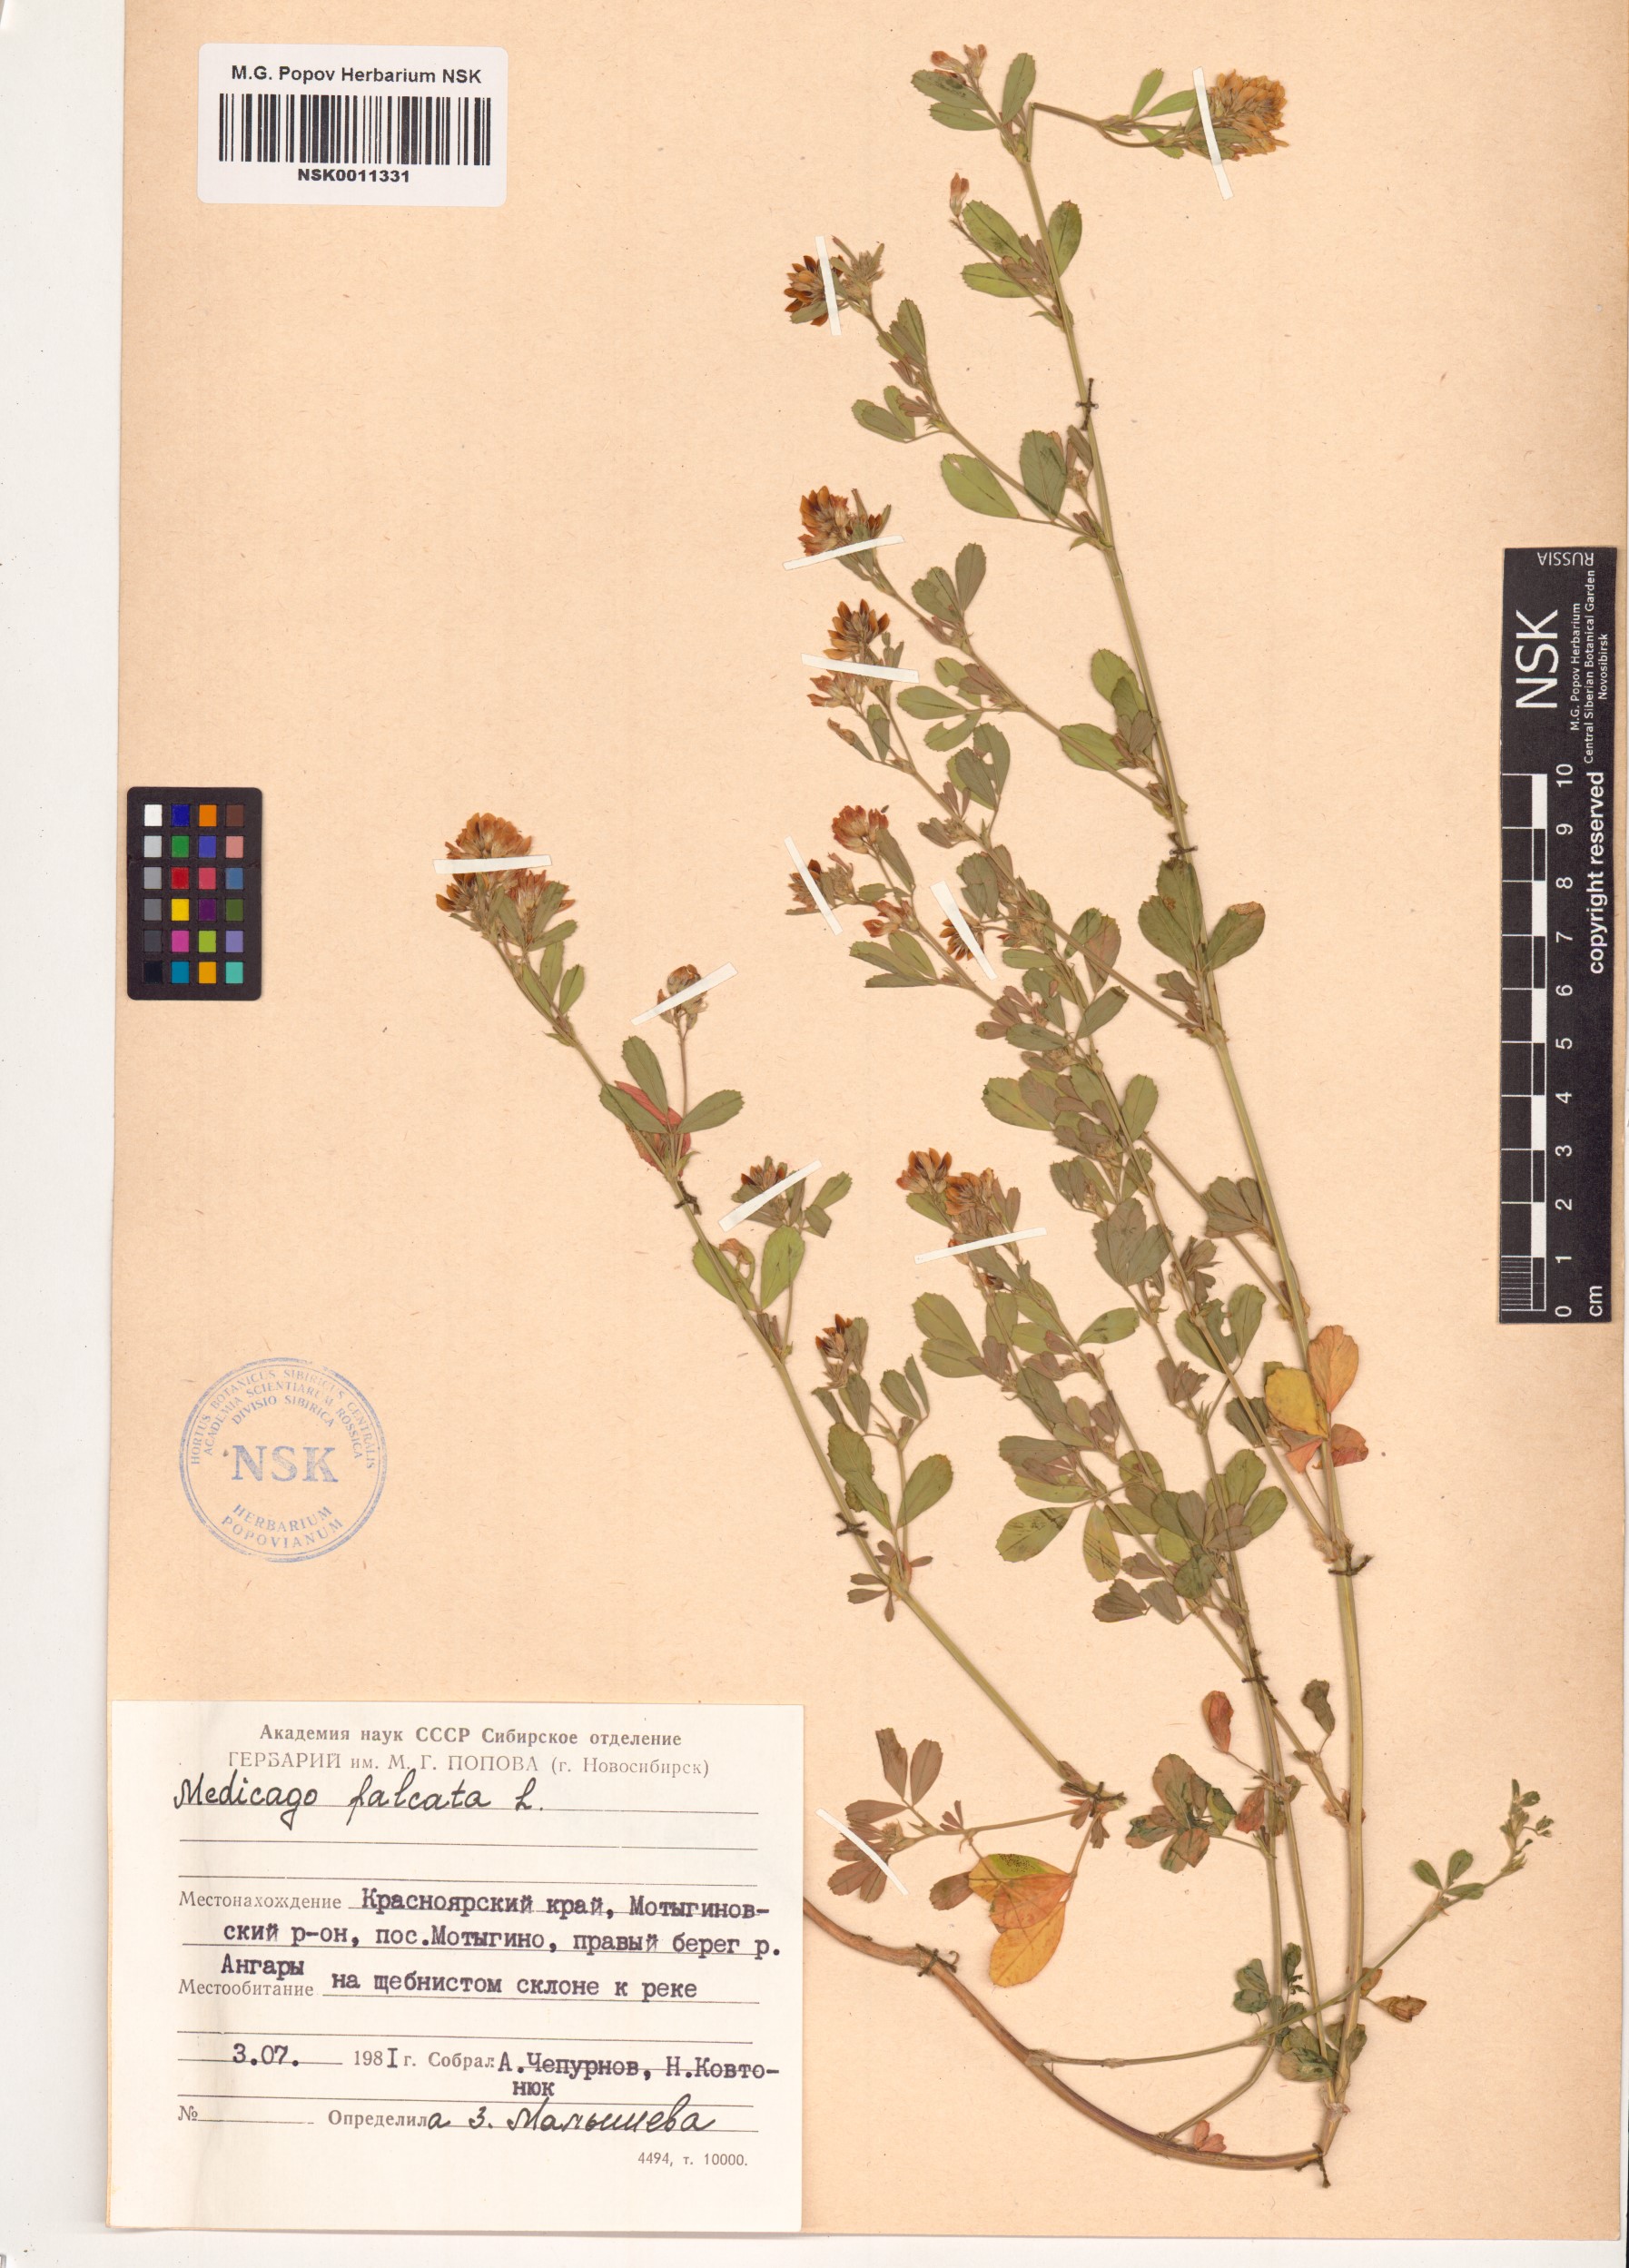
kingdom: Plantae
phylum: Tracheophyta
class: Magnoliopsida
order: Fabales
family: Fabaceae
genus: Medicago
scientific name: Medicago falcata
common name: Sickle medick
